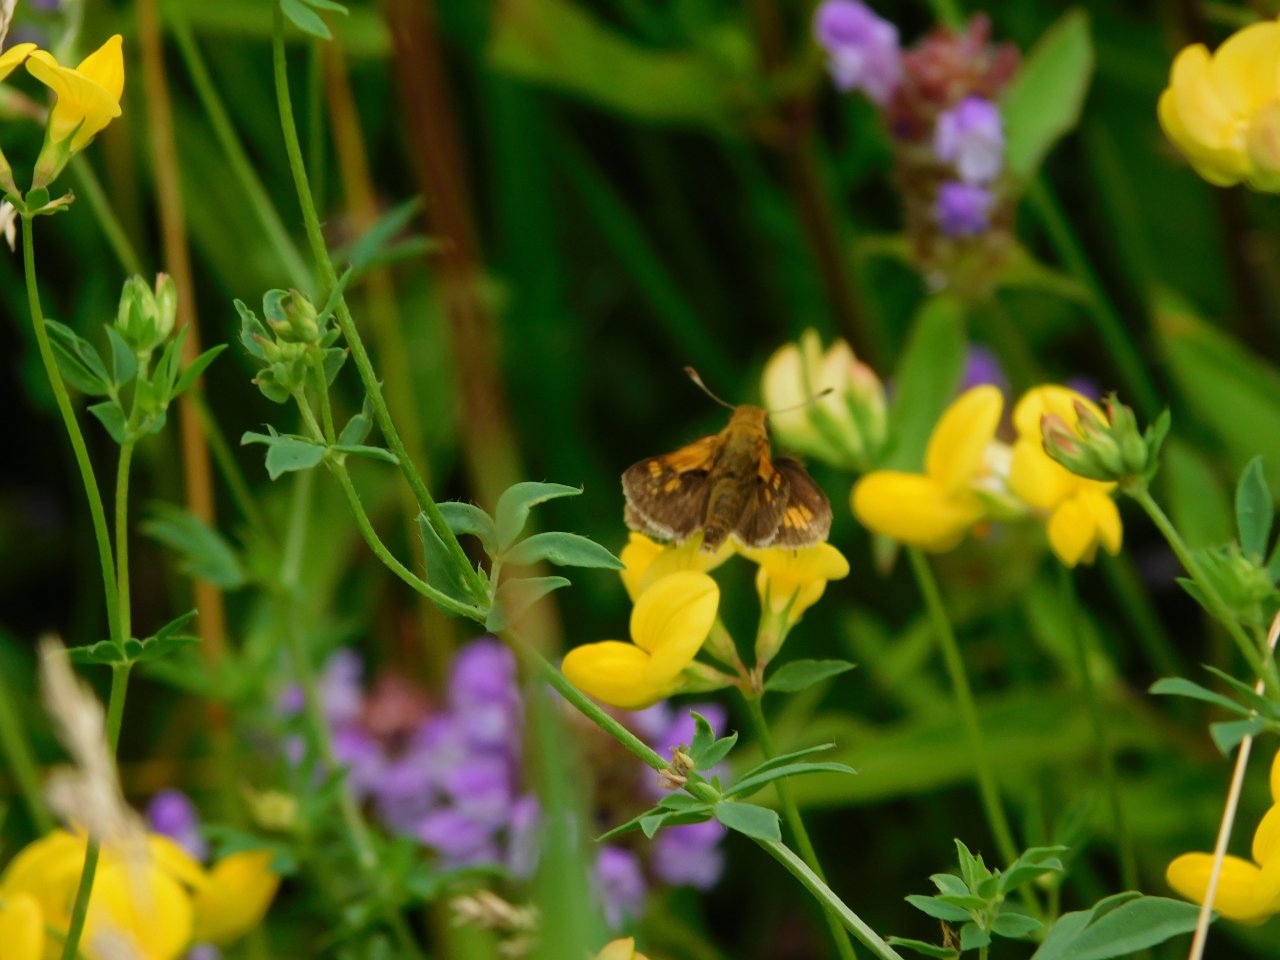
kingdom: Animalia
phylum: Arthropoda
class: Insecta
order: Lepidoptera
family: Hesperiidae
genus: Polites
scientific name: Polites coras
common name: Peck's Skipper
